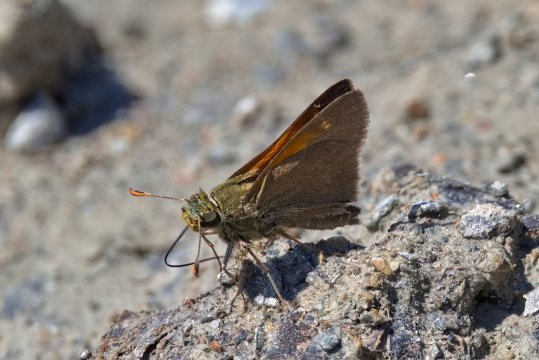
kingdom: Animalia
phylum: Arthropoda
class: Insecta
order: Lepidoptera
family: Hesperiidae
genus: Polites
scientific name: Polites themistocles
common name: Tawny-edged Skipper
